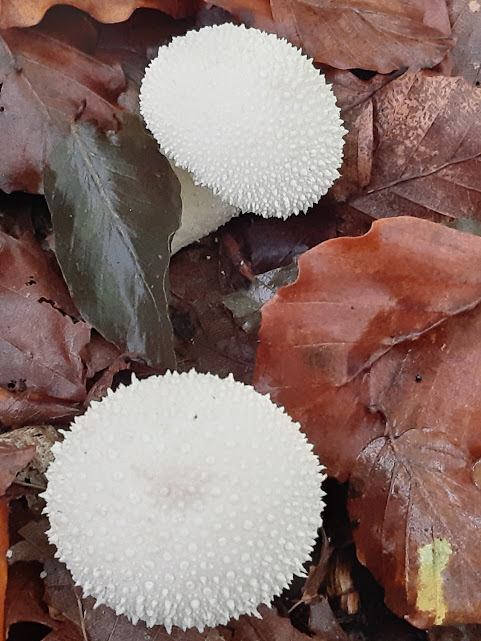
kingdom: Fungi
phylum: Basidiomycota
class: Agaricomycetes
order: Agaricales
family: Lycoperdaceae
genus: Lycoperdon
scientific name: Lycoperdon perlatum
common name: krystal-støvbold
